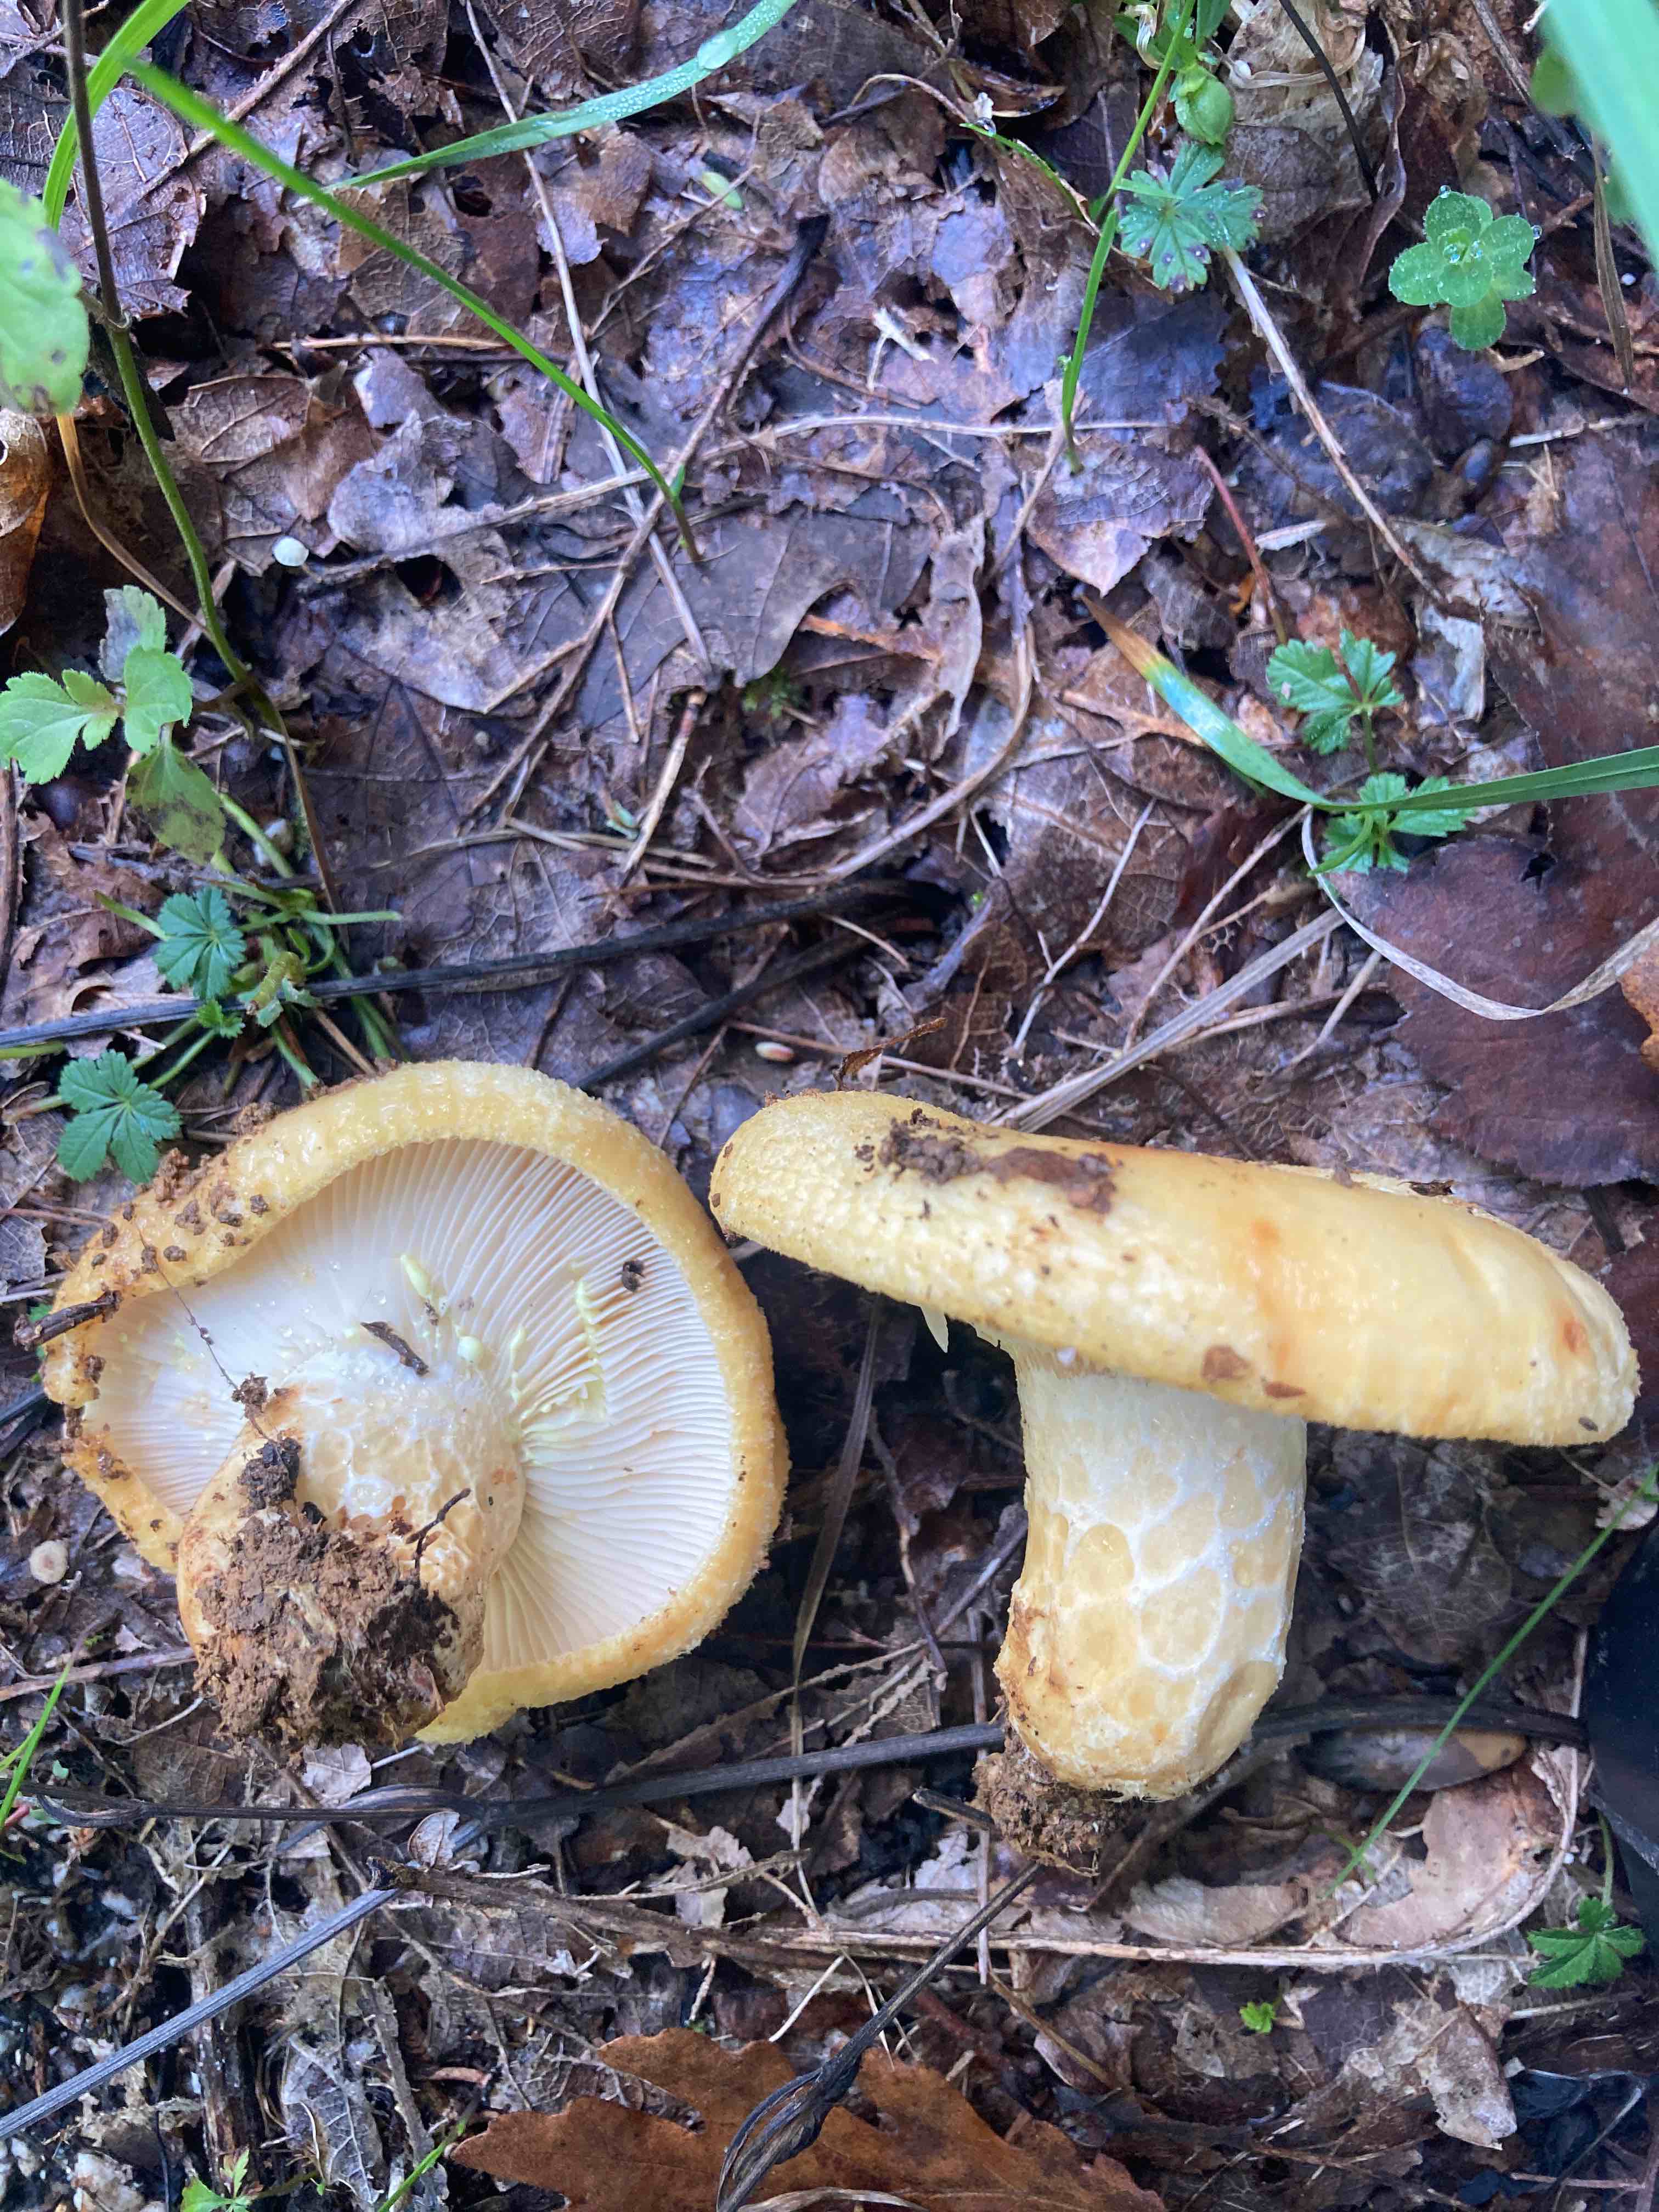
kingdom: Fungi
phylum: Basidiomycota
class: Agaricomycetes
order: Russulales
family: Russulaceae
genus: Lactarius
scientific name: Lactarius torminosus
